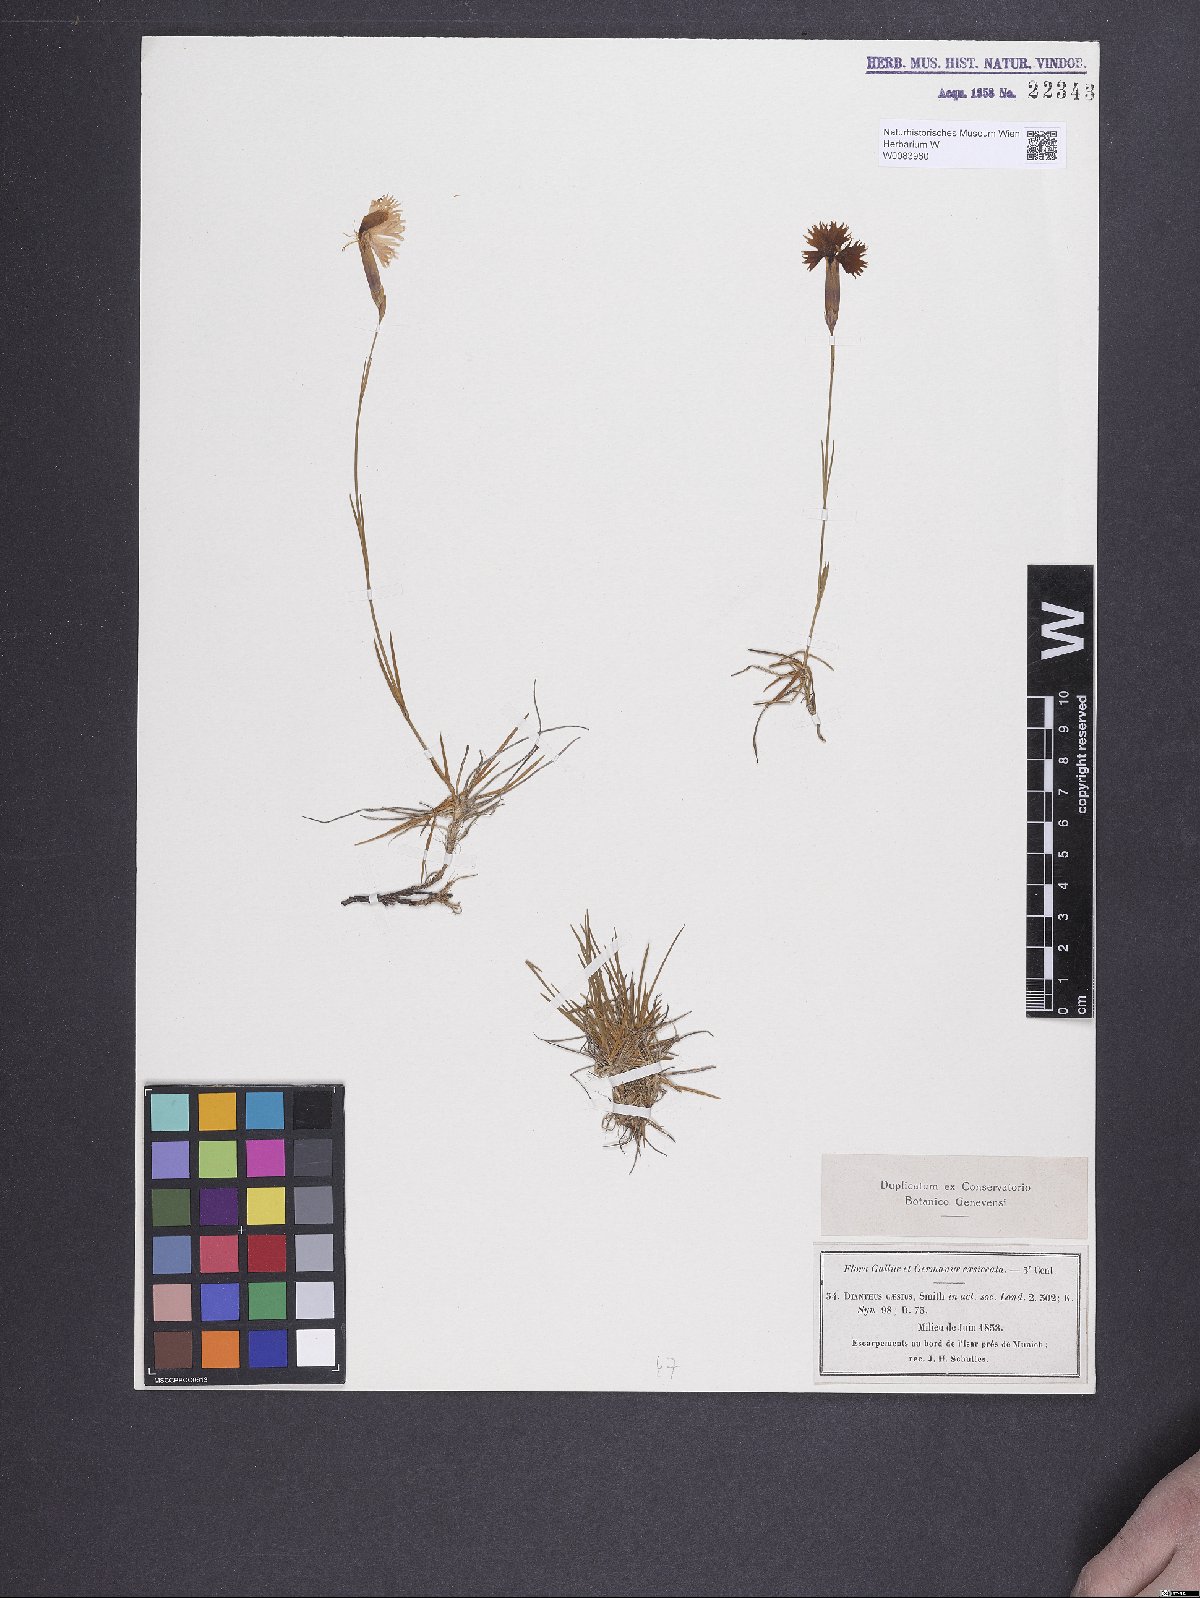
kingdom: Plantae
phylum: Tracheophyta
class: Magnoliopsida
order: Caryophyllales
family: Caryophyllaceae
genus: Dianthus
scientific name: Dianthus gratianopolitanus
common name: Cheddar pink
